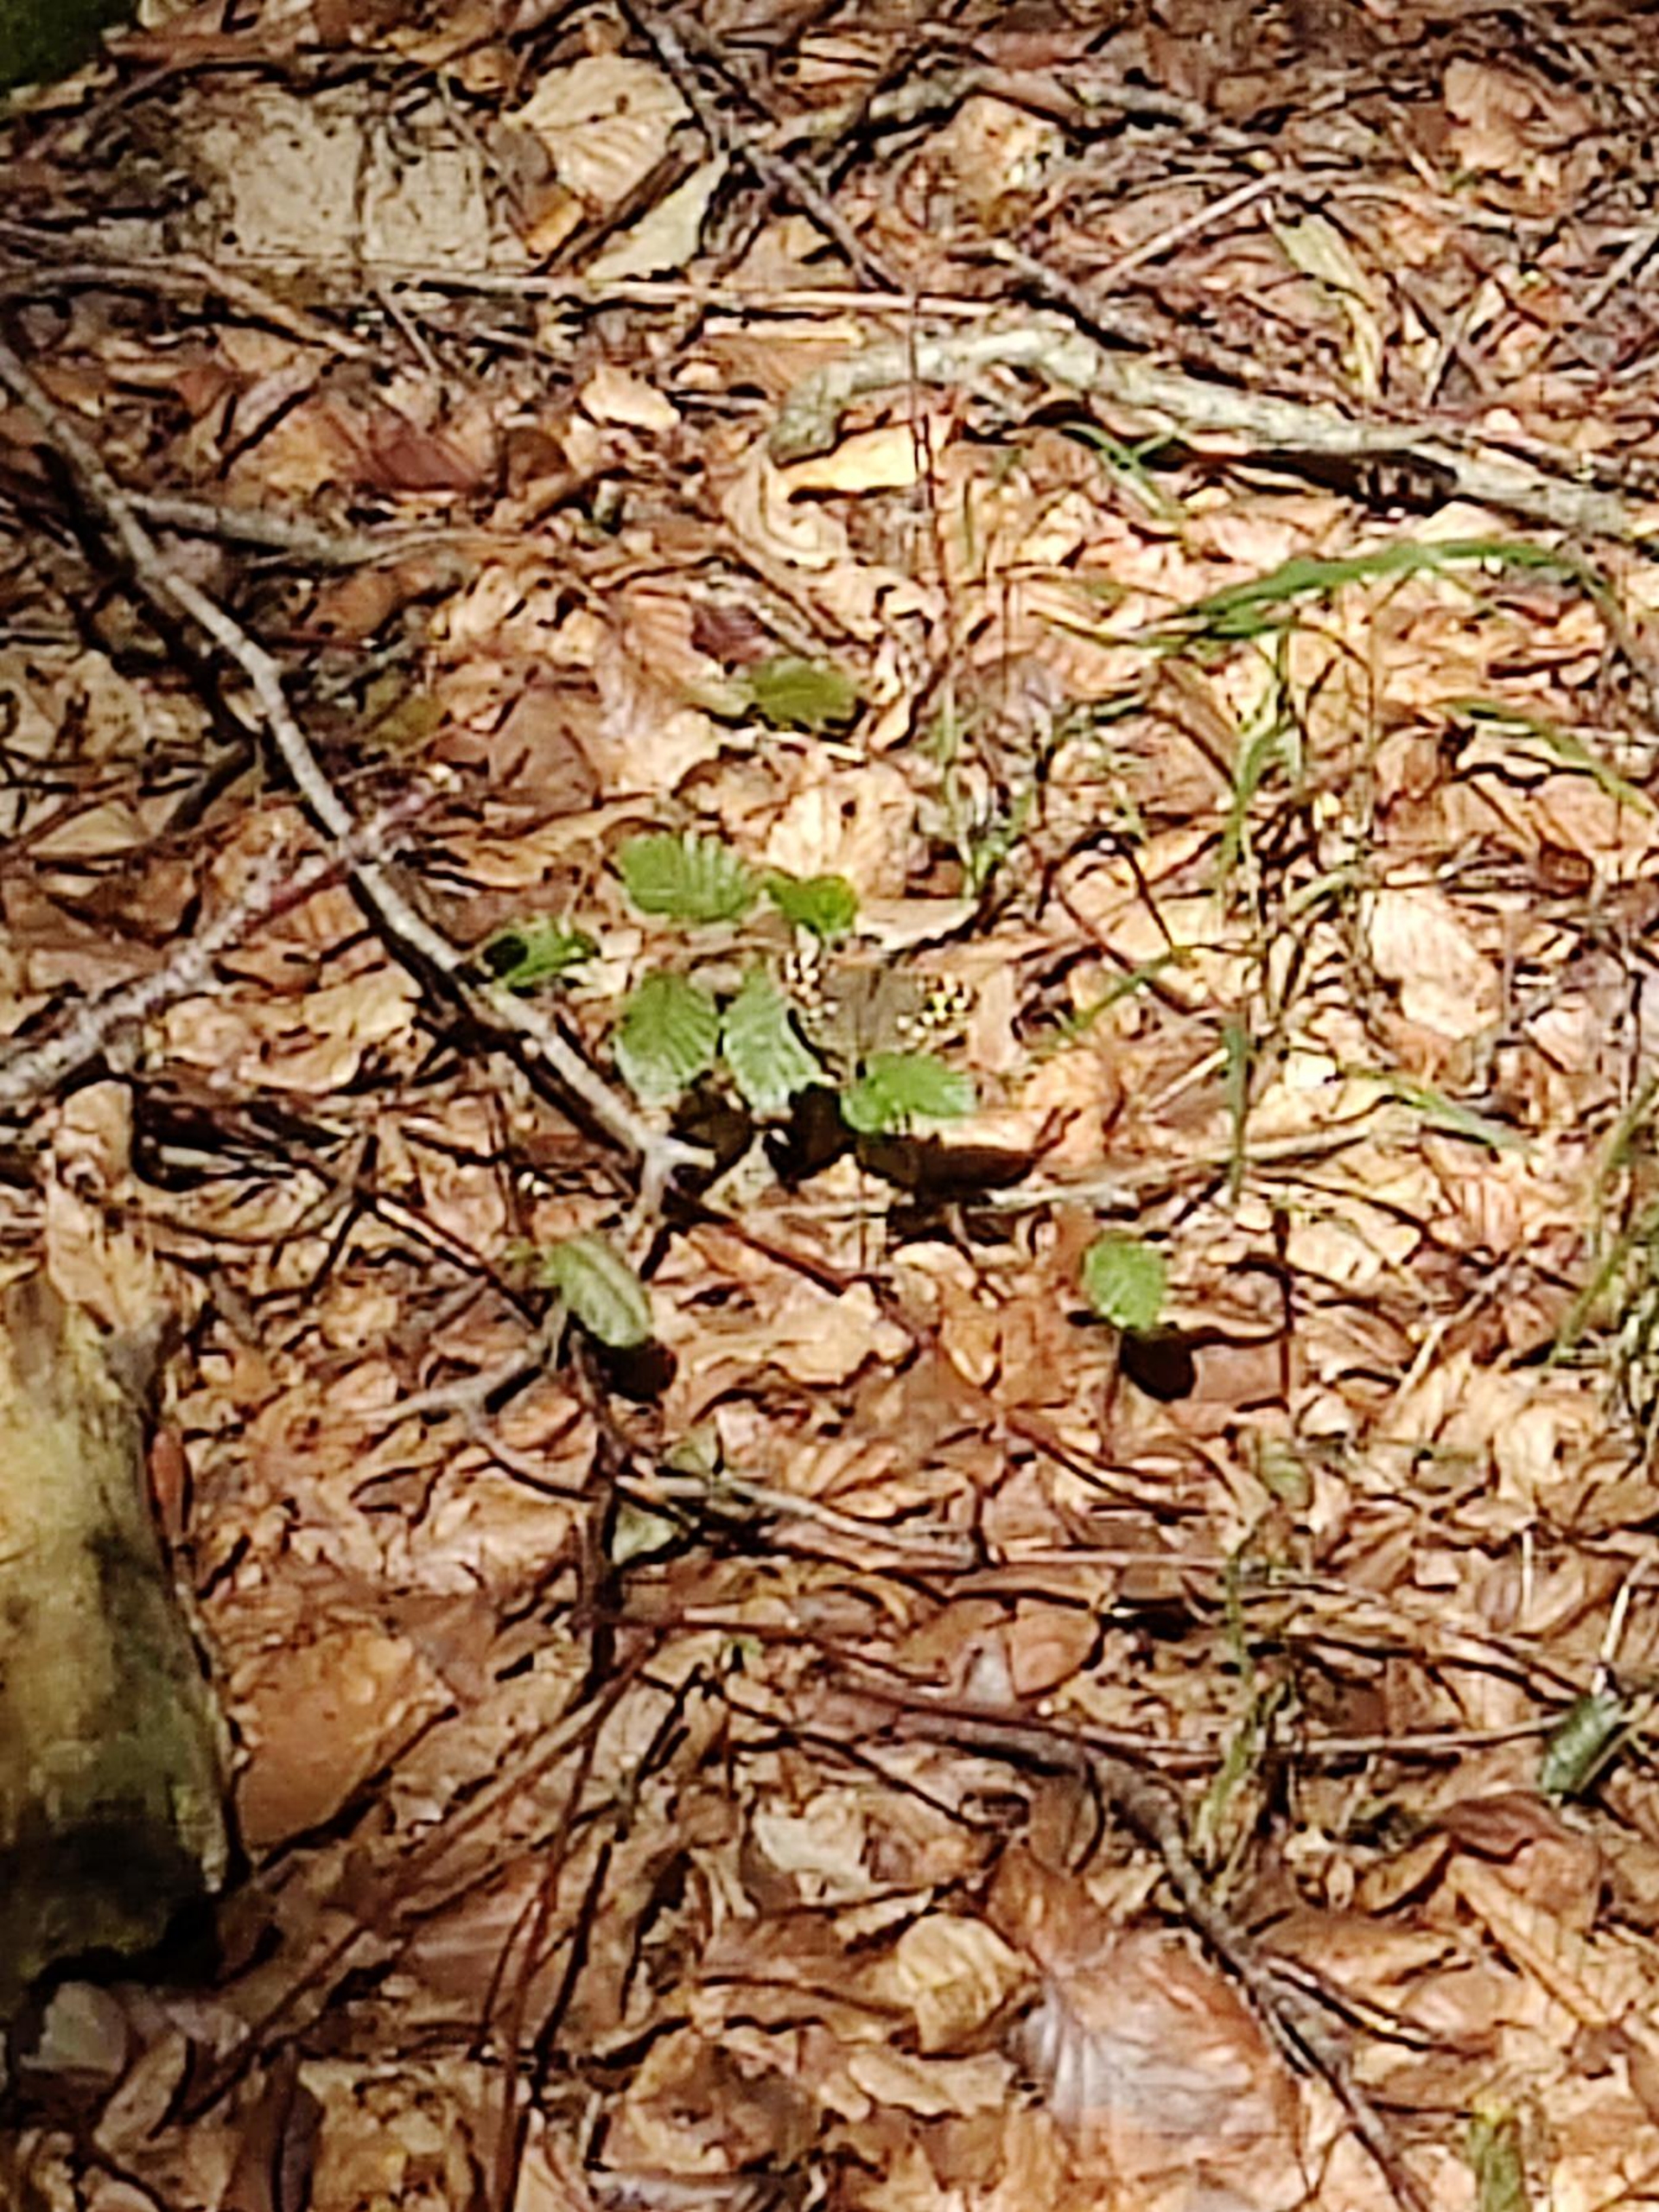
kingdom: Animalia
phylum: Arthropoda
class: Insecta
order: Lepidoptera
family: Nymphalidae
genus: Pararge
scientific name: Pararge aegeria
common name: Skovrandøje
